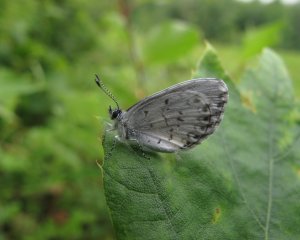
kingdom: Animalia
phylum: Arthropoda
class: Insecta
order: Lepidoptera
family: Lycaenidae
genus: Cyaniris
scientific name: Cyaniris neglecta
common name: Summer Azure
